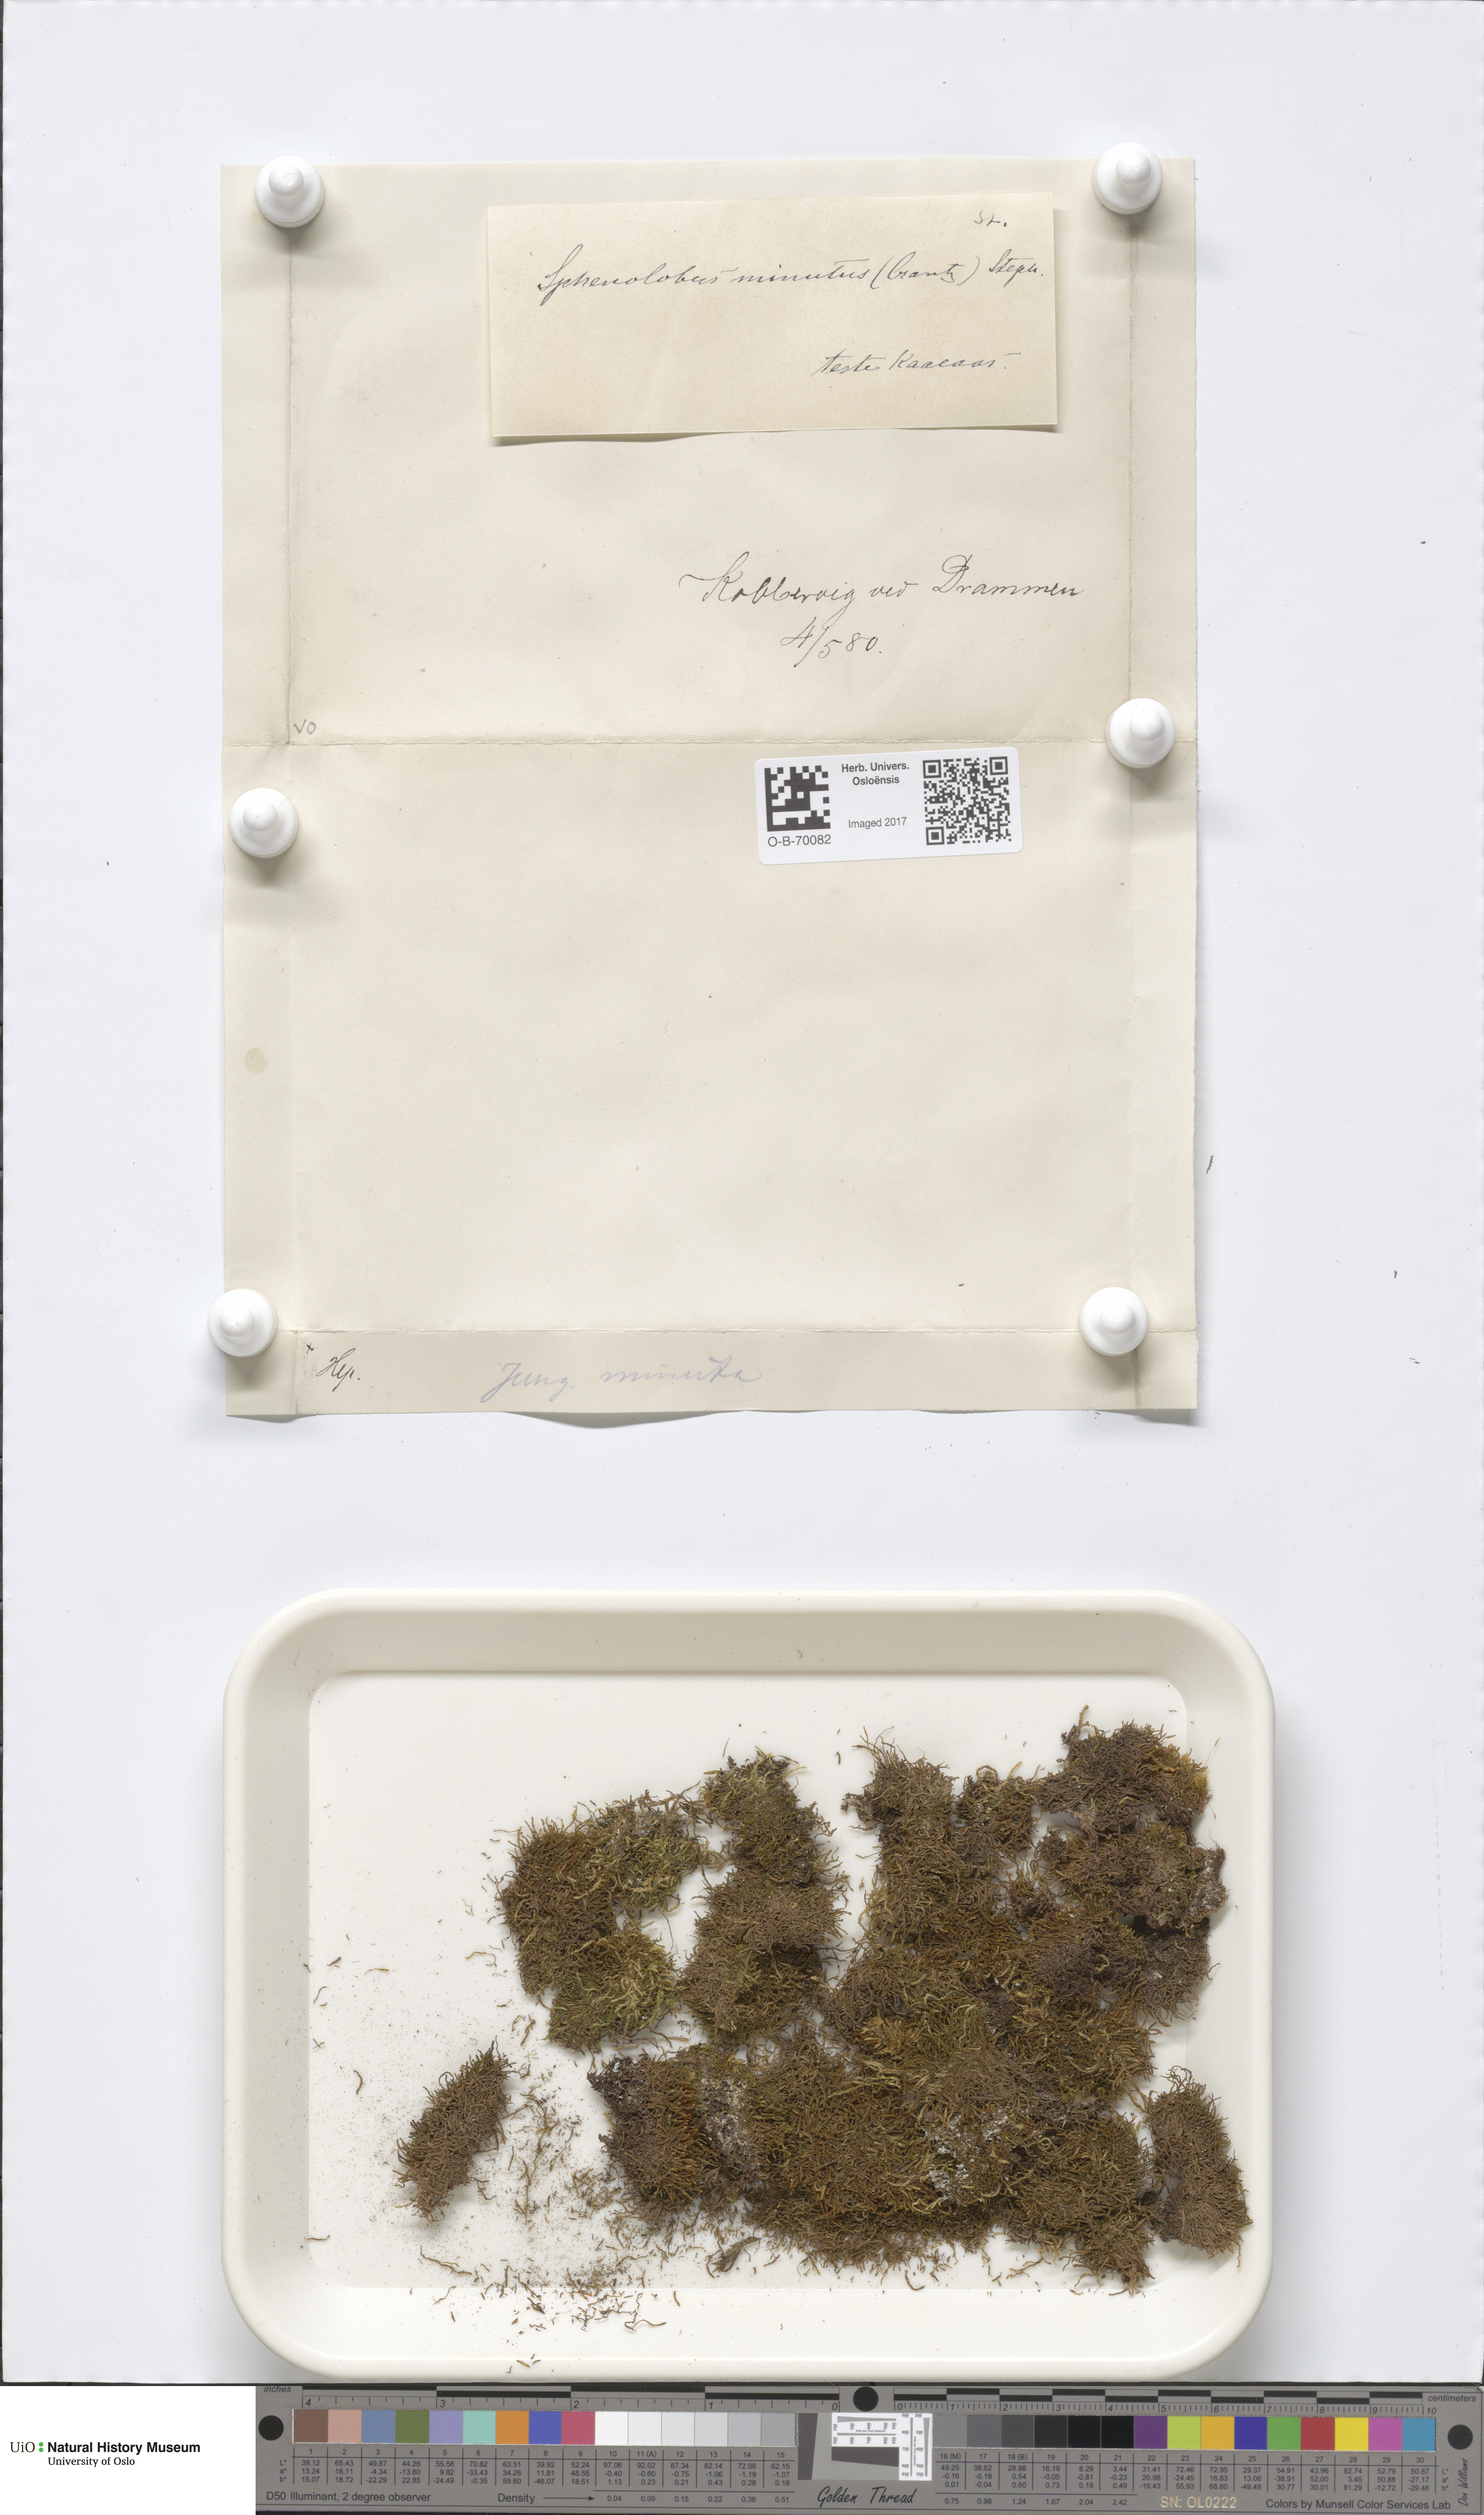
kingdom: Plantae
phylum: Marchantiophyta
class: Jungermanniopsida
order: Jungermanniales
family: Anastrophyllaceae
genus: Sphenolobus
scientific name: Sphenolobus minutus
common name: Comb notchwort
